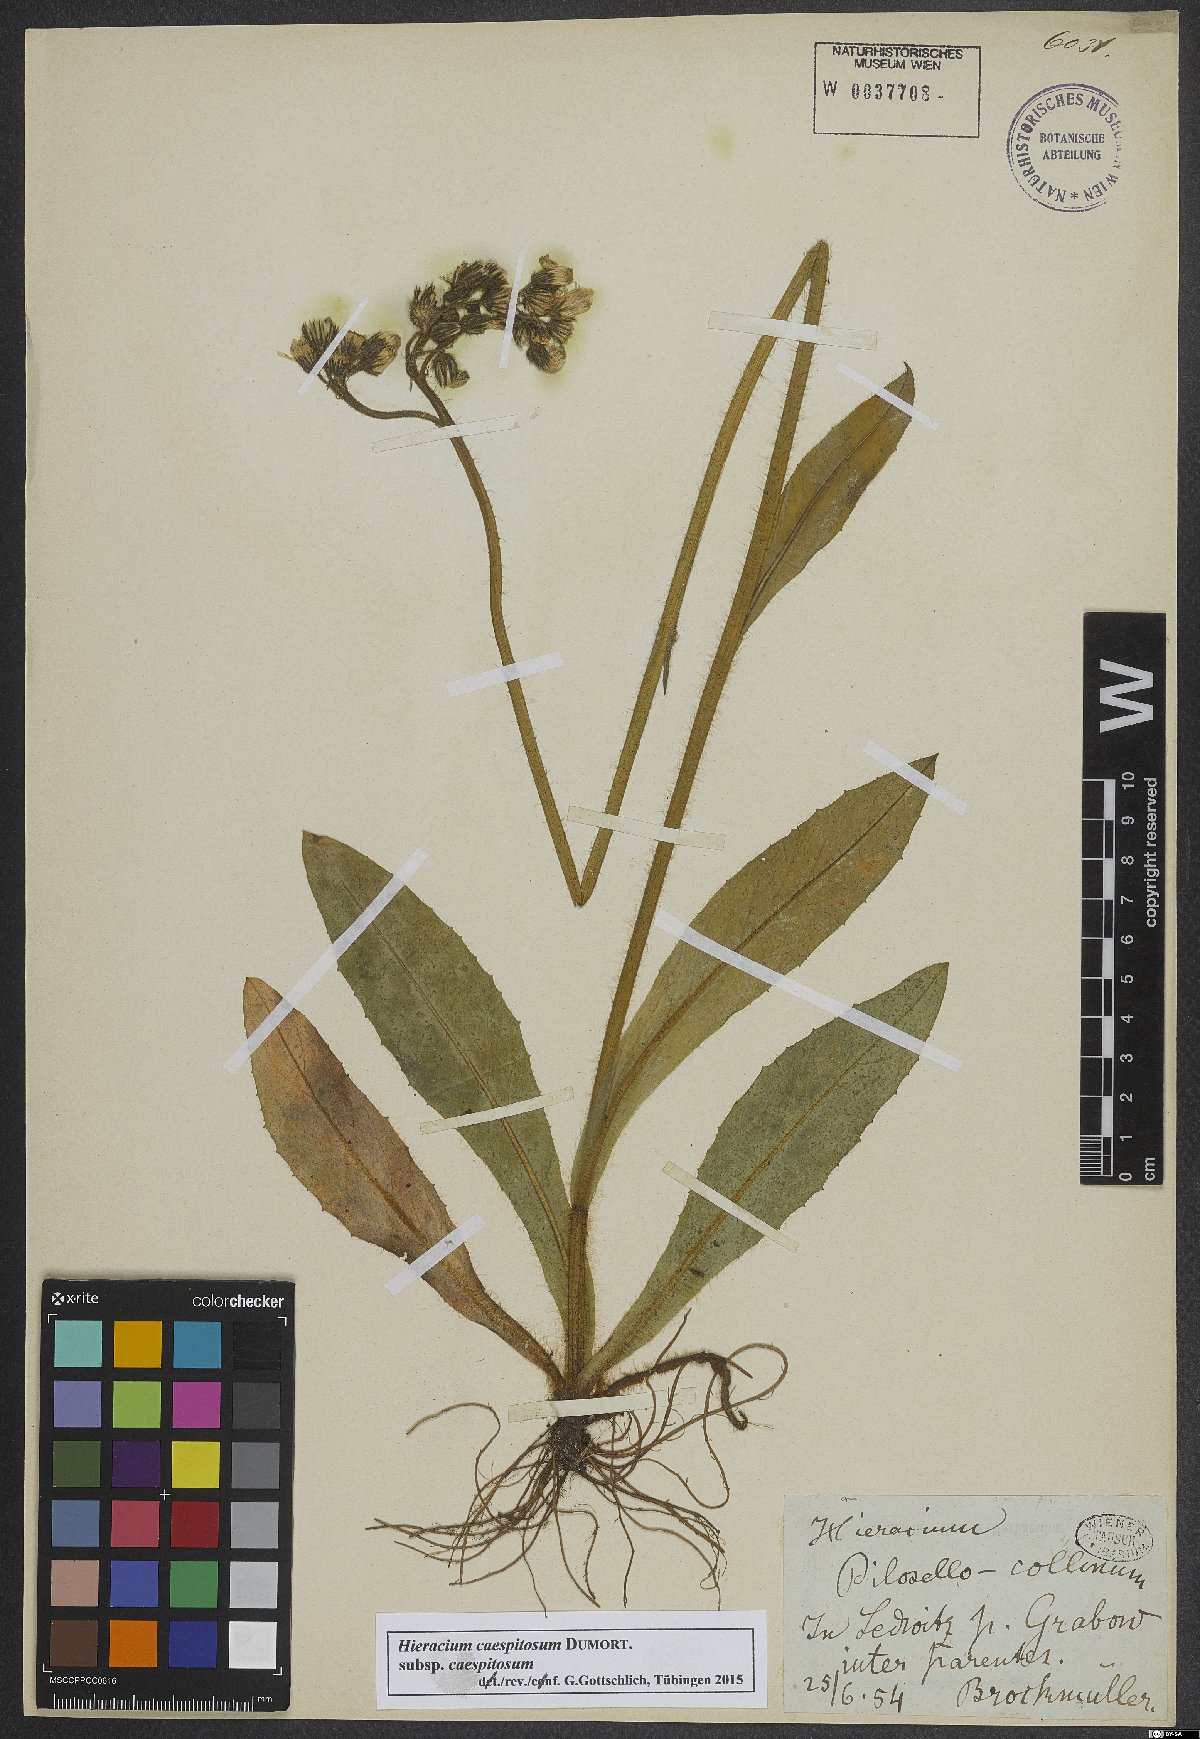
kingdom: Plantae
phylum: Tracheophyta
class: Magnoliopsida
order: Asterales
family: Asteraceae
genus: Pilosella
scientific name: Pilosella caespitosa
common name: Yellow fox-and-cubs
